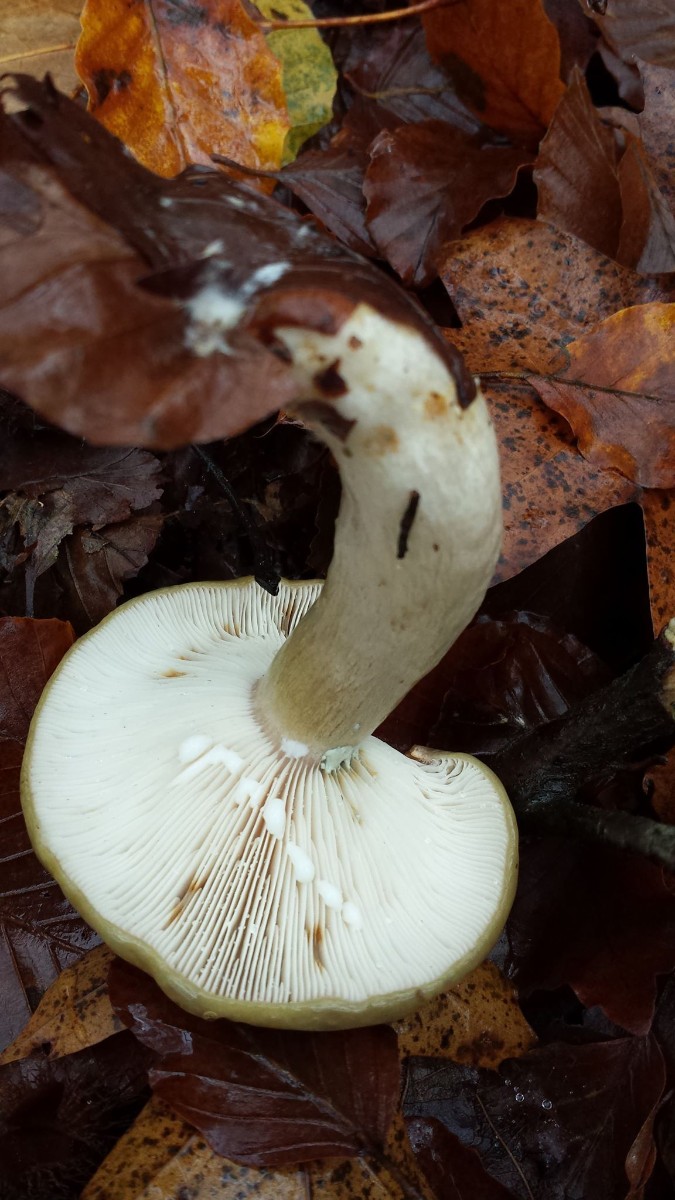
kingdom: Fungi
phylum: Basidiomycota
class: Agaricomycetes
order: Russulales
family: Russulaceae
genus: Lactarius
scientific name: Lactarius blennius
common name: dråbeplettet mælkehat
